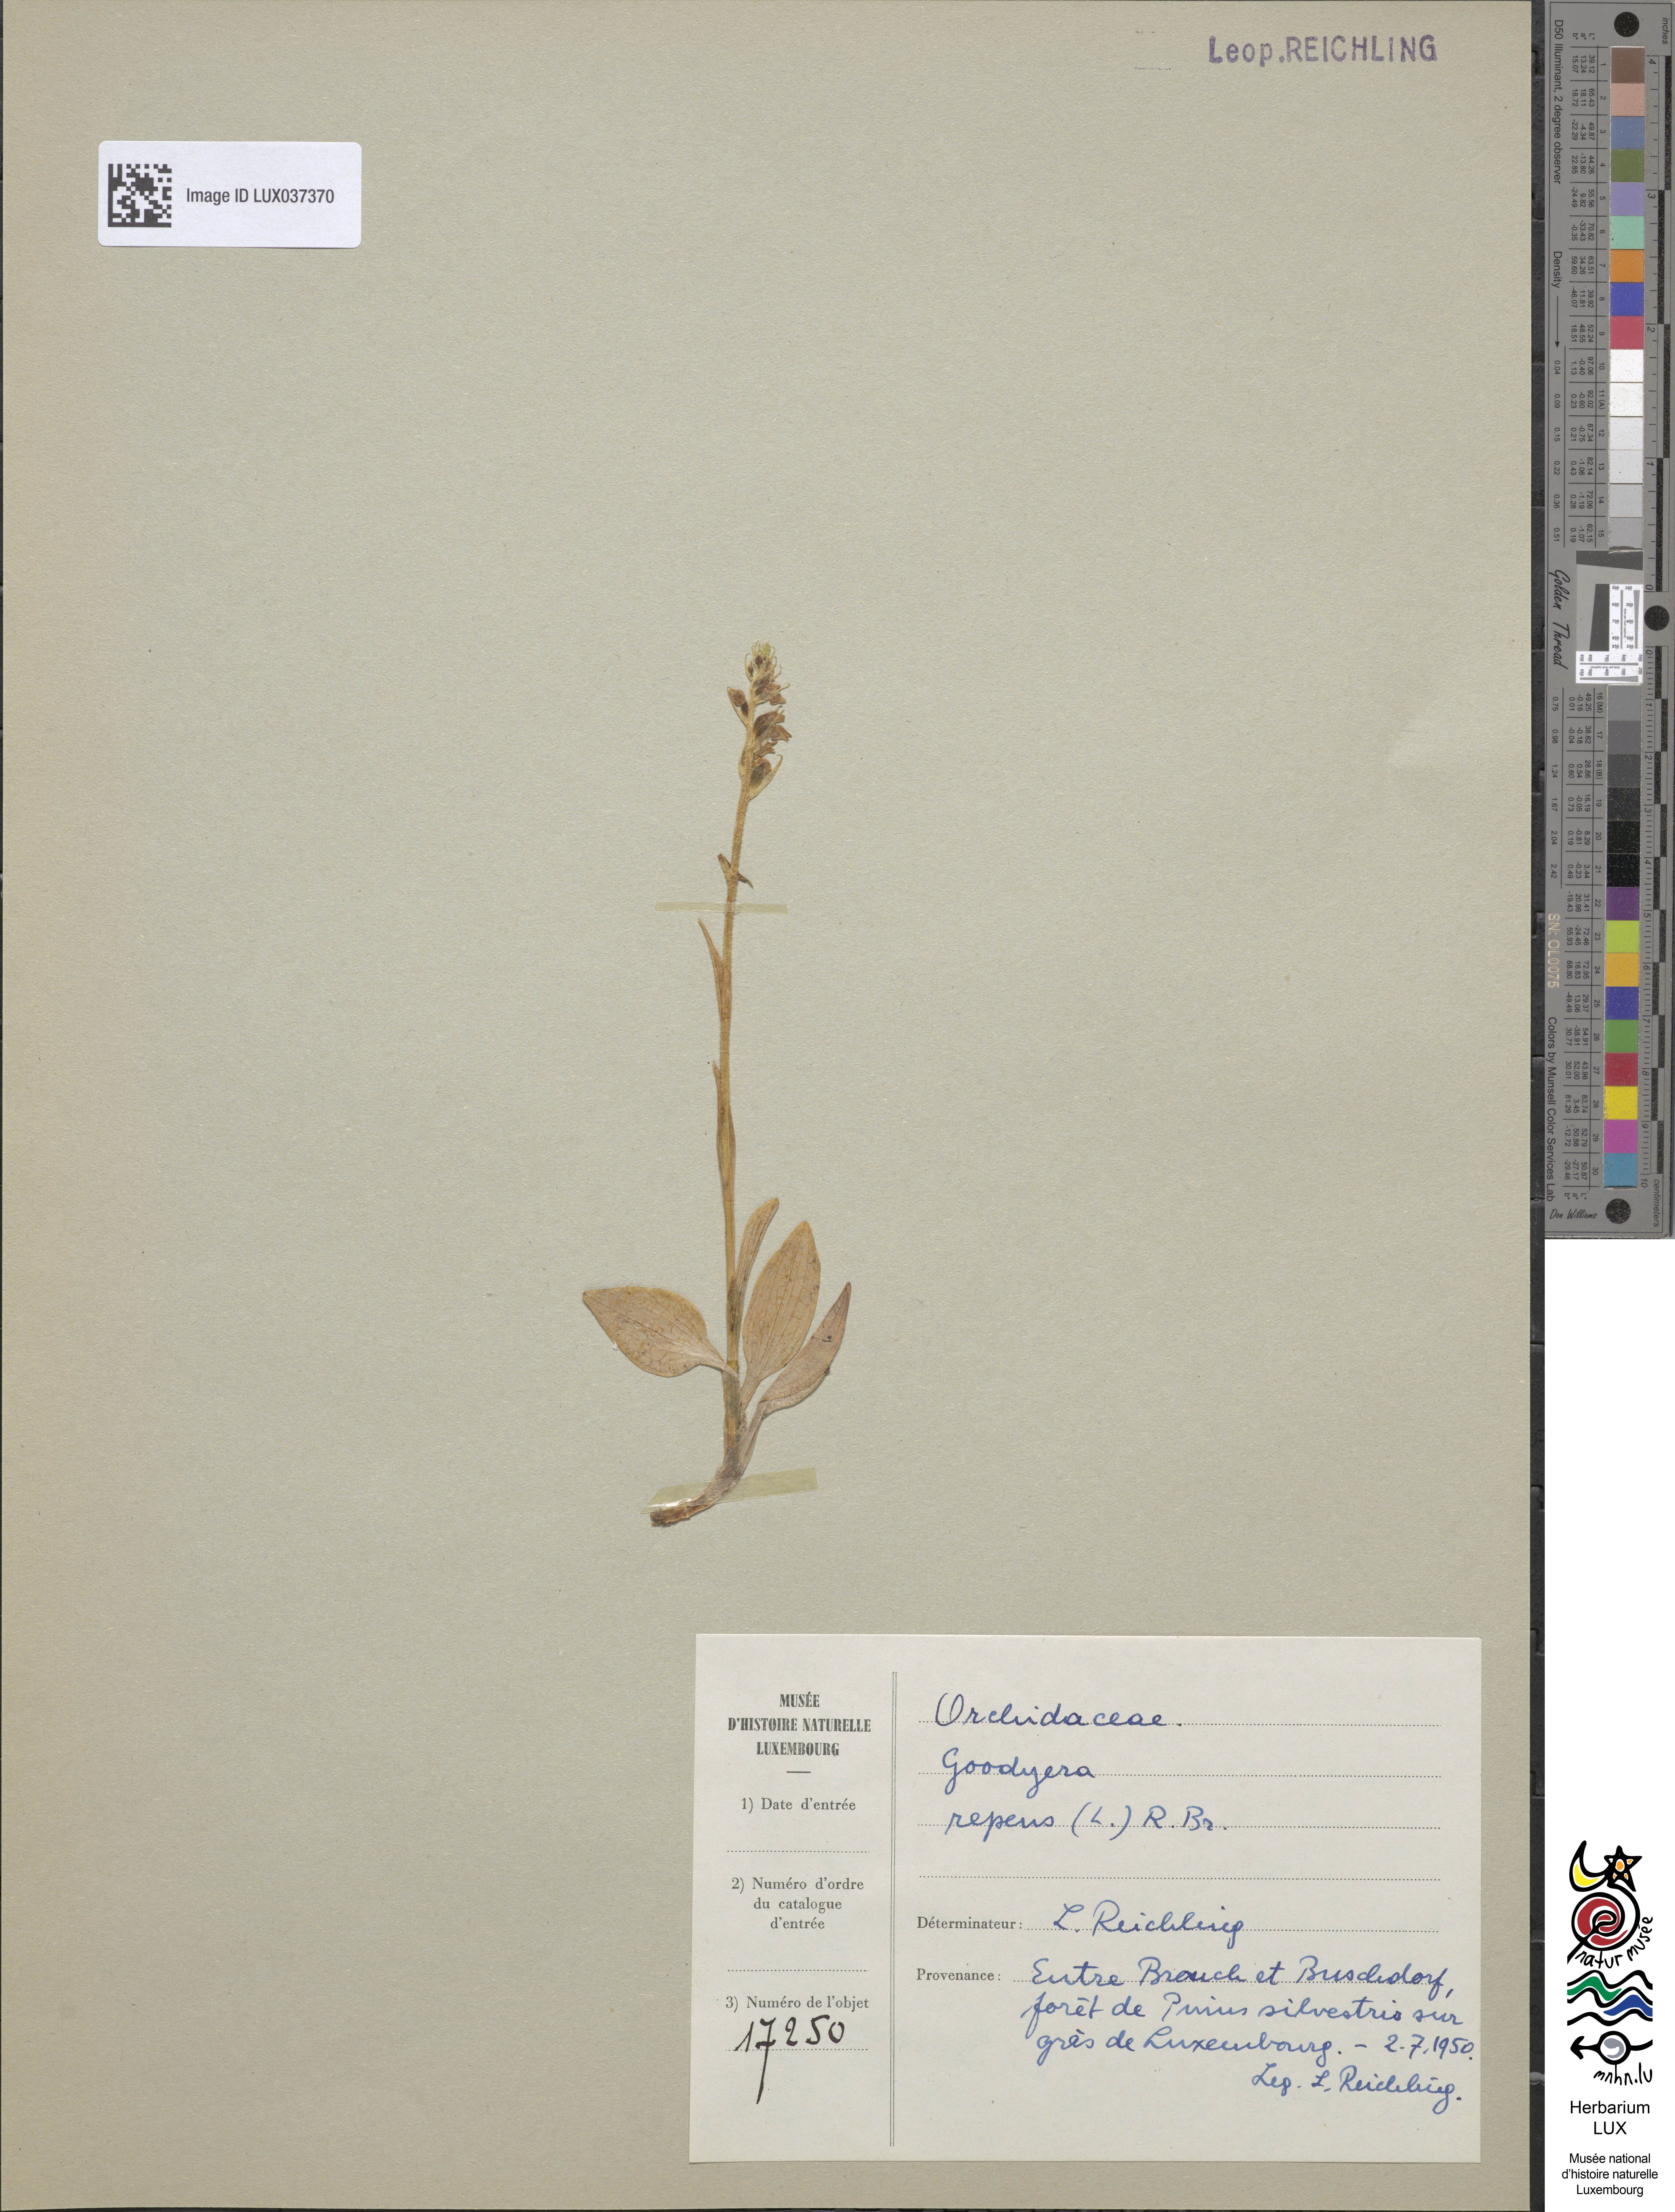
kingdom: Plantae
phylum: Tracheophyta
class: Liliopsida
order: Asparagales
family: Orchidaceae
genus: Goodyera
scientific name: Goodyera repens
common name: Creeping lady's-tresses
